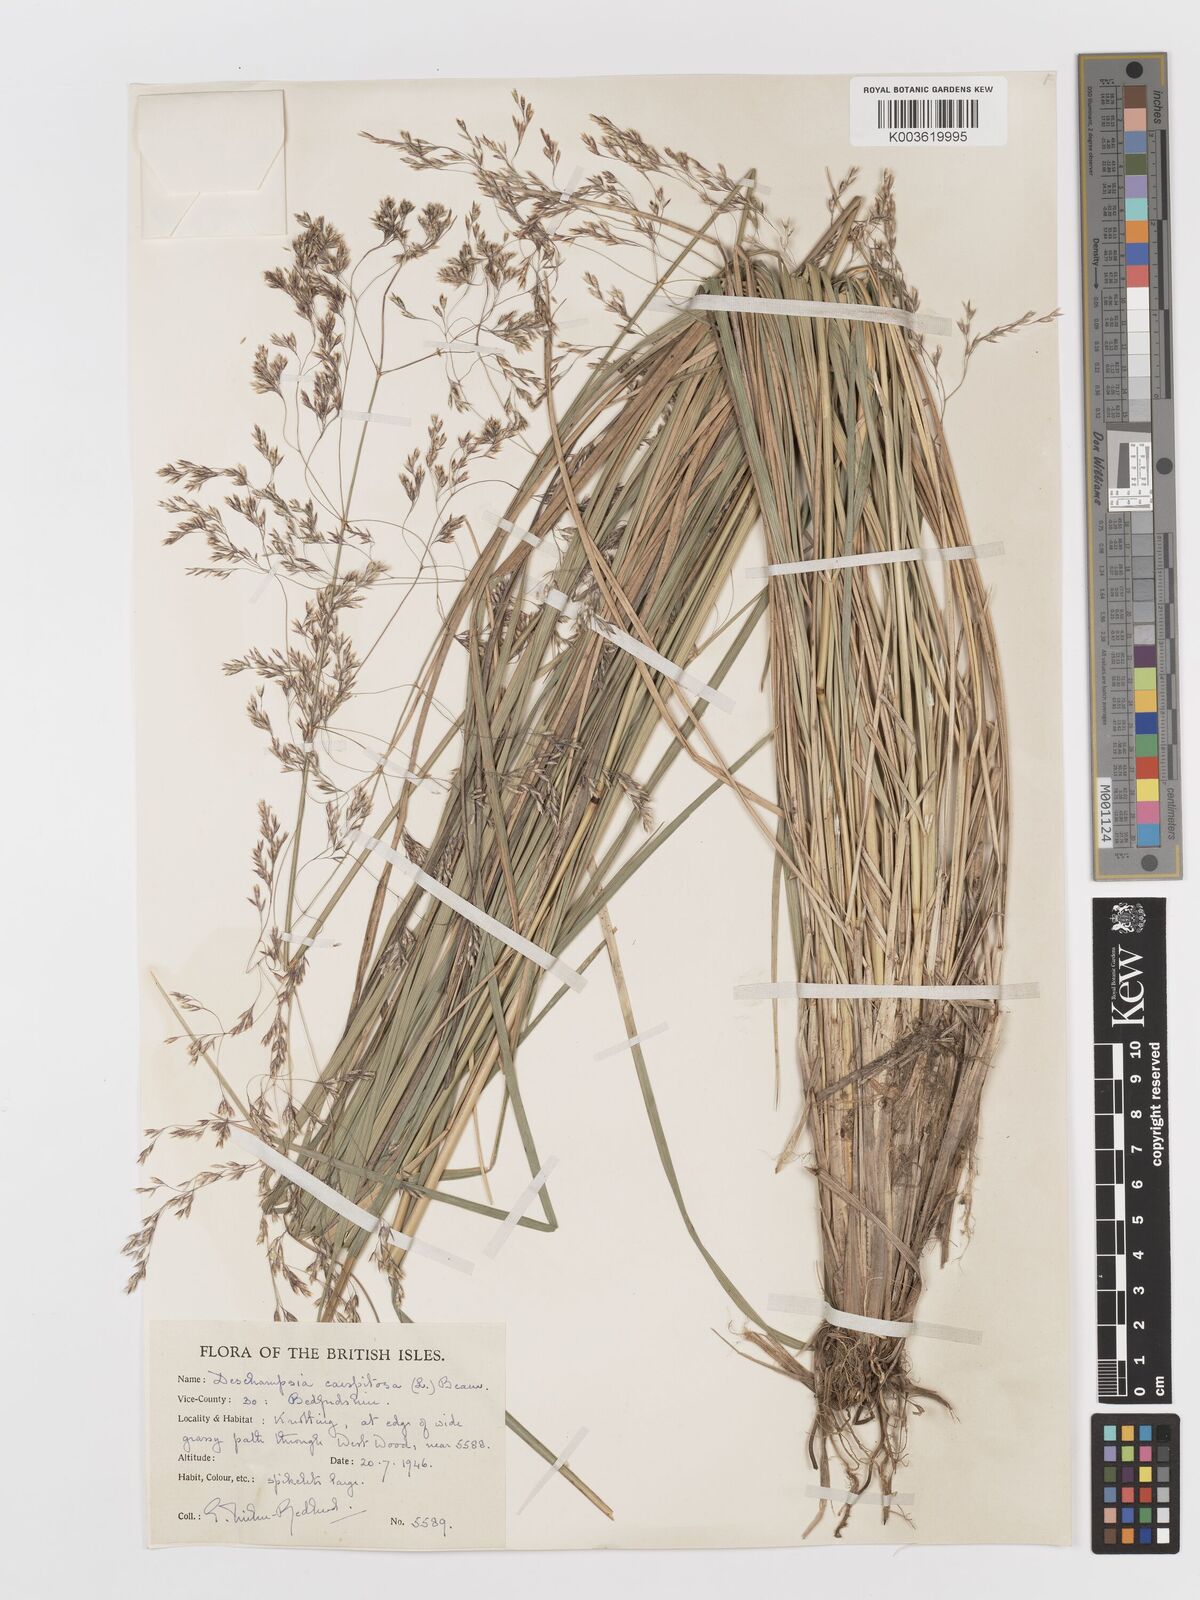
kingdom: Plantae
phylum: Tracheophyta
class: Liliopsida
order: Poales
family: Poaceae
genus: Deschampsia
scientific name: Deschampsia cespitosa
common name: Tufted hair-grass
